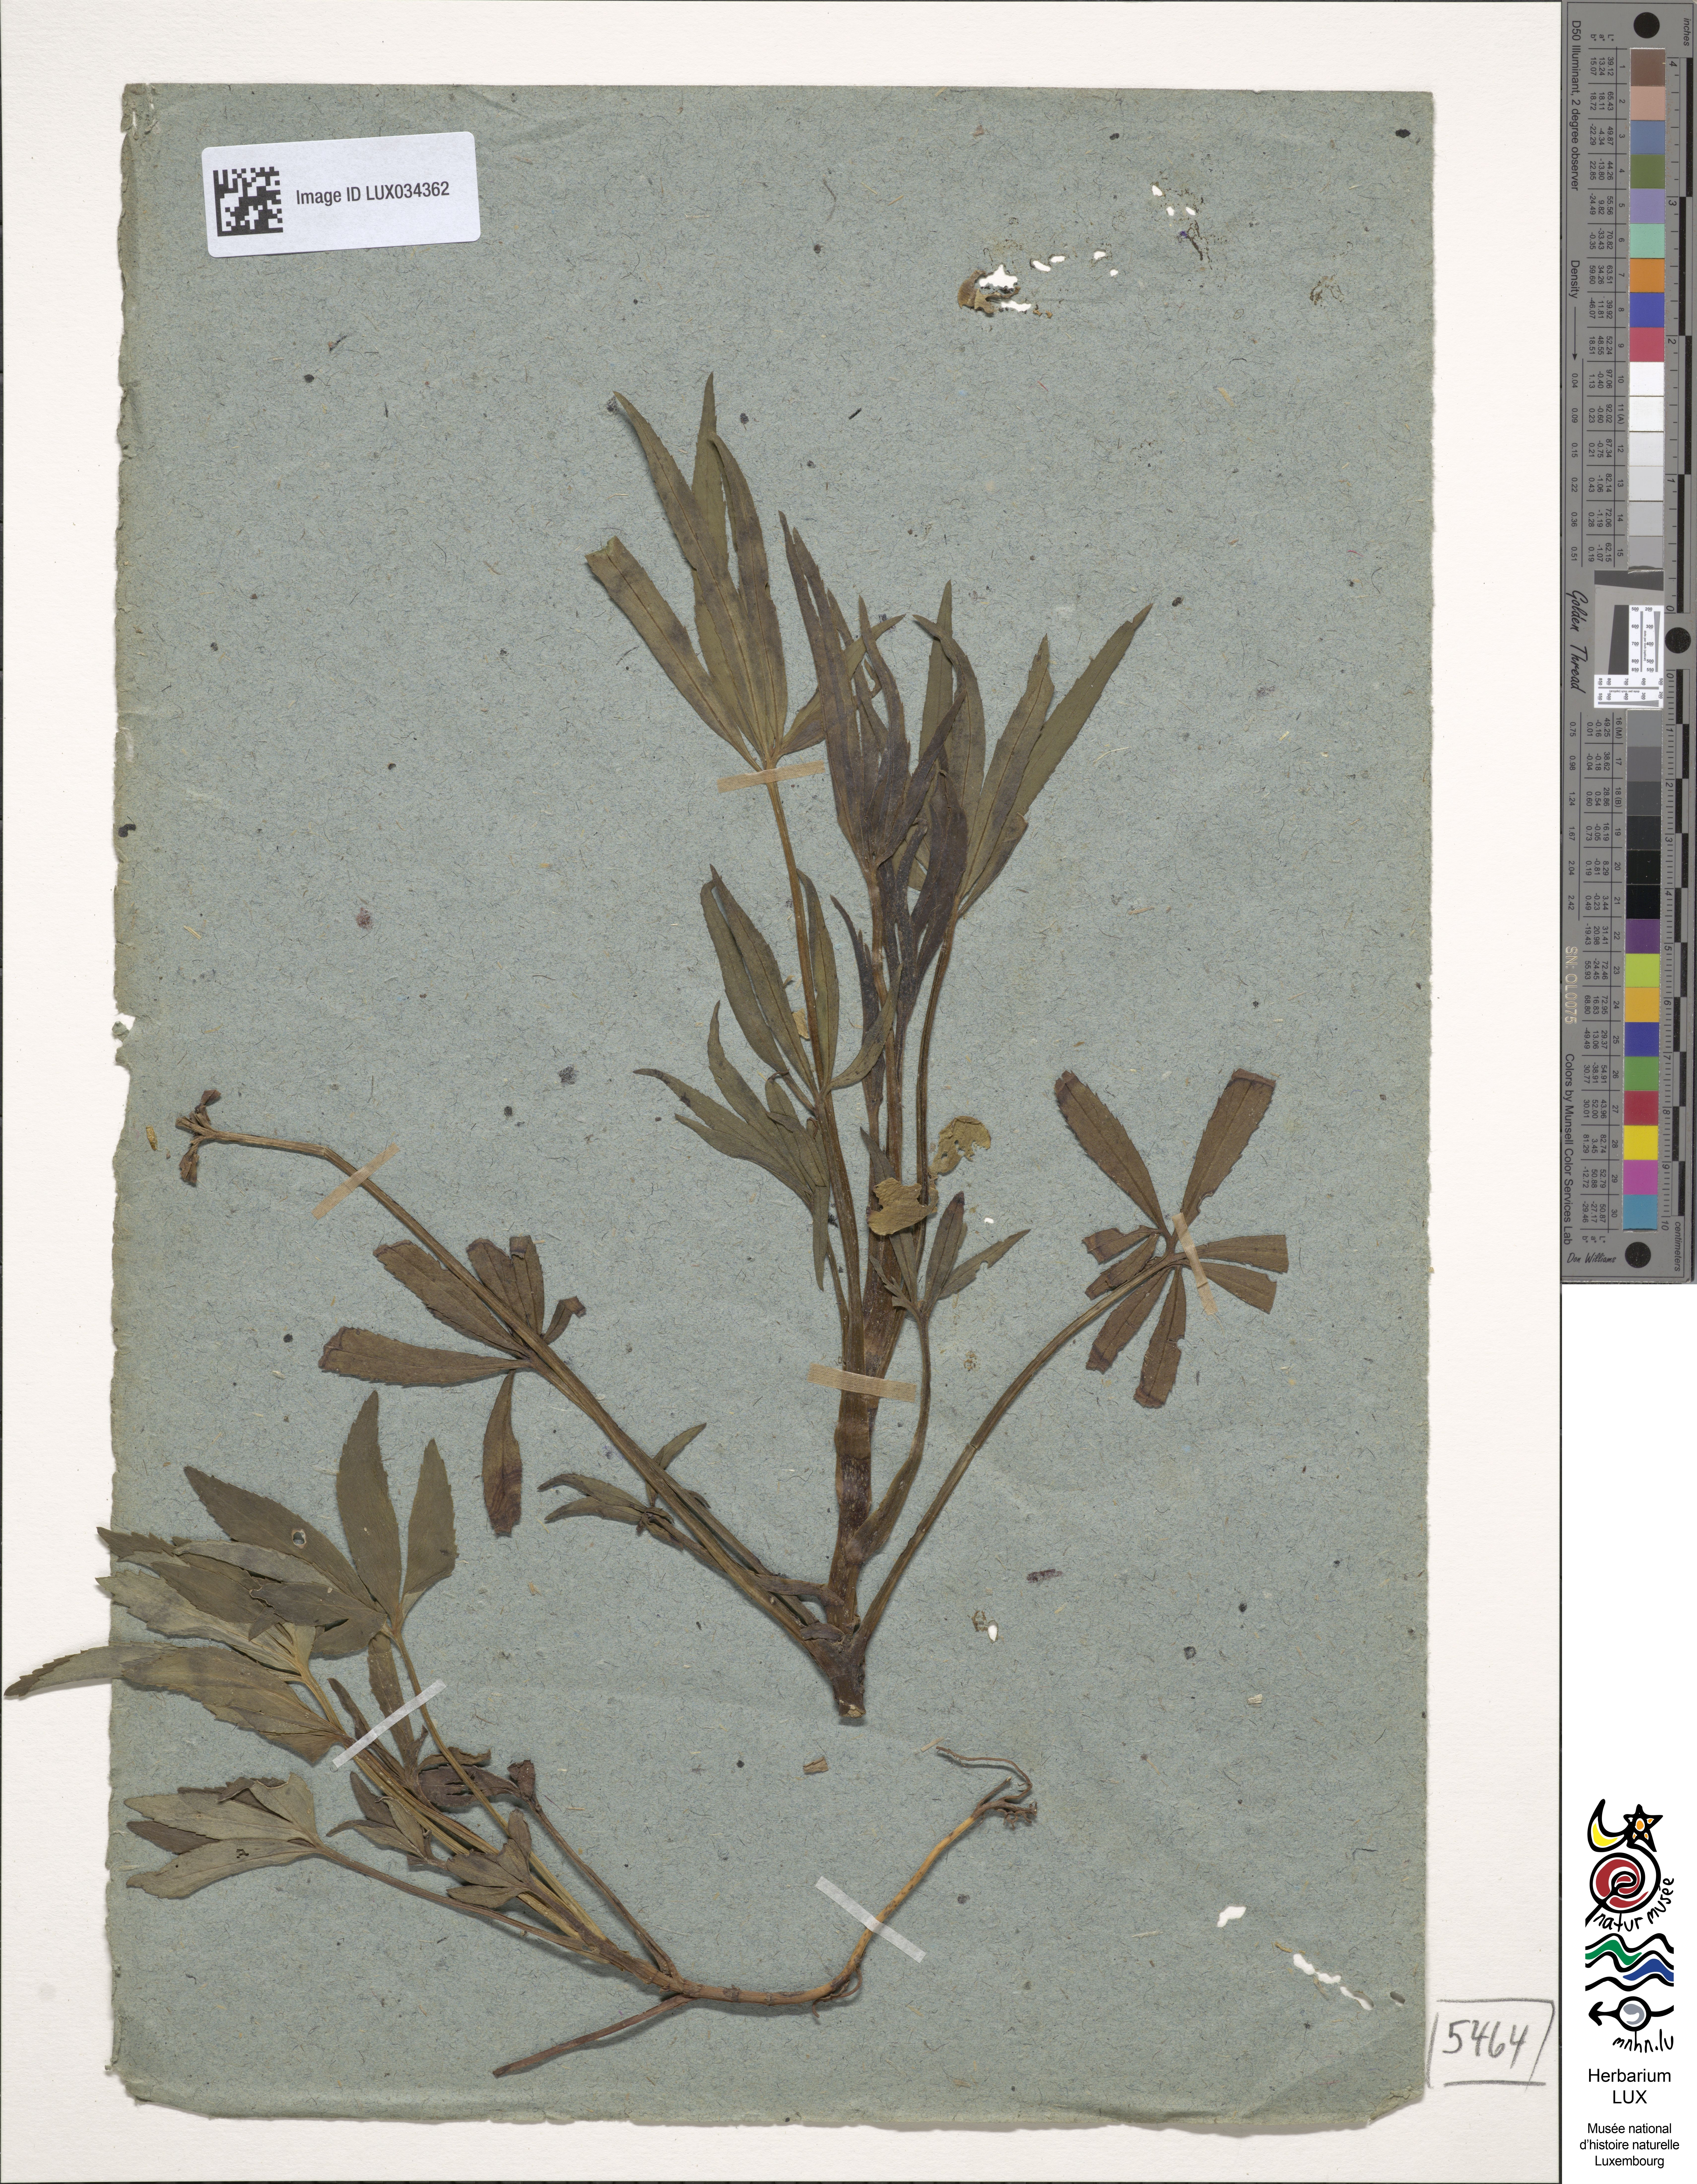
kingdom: Plantae
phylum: Tracheophyta
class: Magnoliopsida
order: Ranunculales
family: Ranunculaceae
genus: Helleborus
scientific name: Helleborus foetidus
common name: Stinking hellebore
